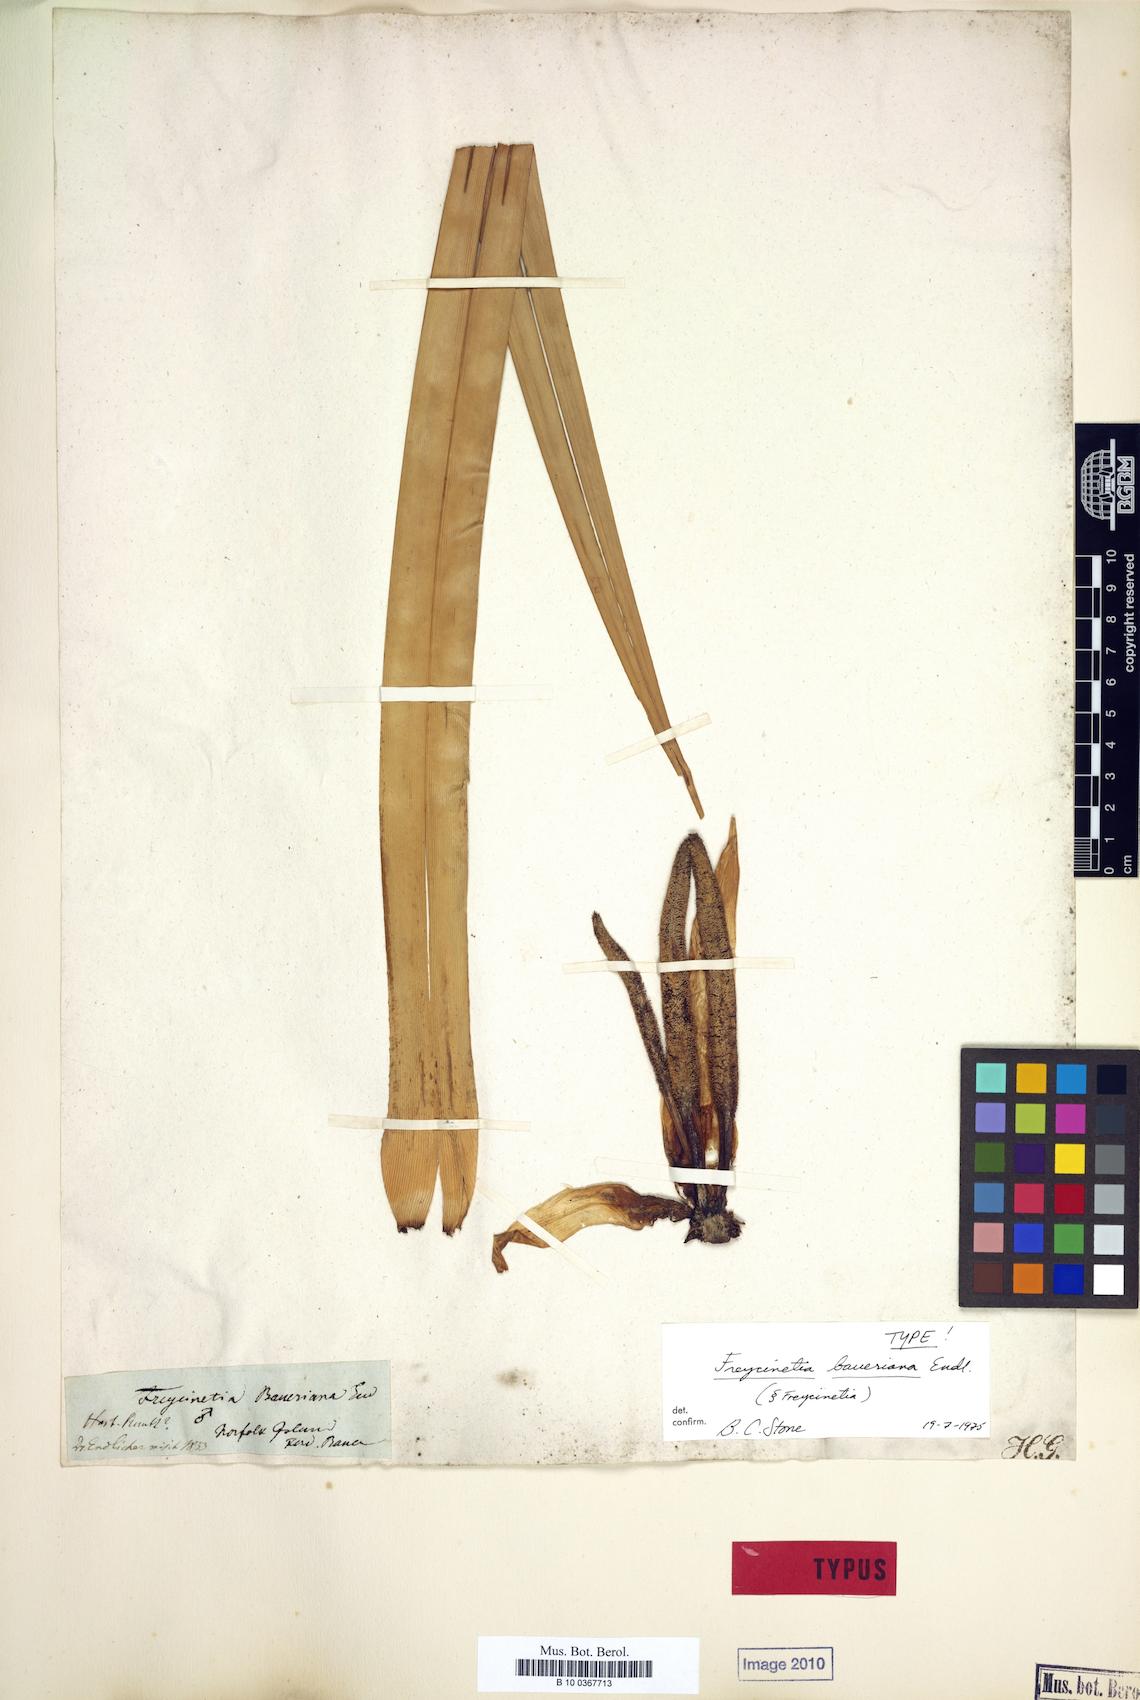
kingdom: Plantae
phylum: Tracheophyta
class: Liliopsida
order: Pandanales
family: Pandanaceae
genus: Freycinetia
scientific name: Freycinetia baueriana
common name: Mountain rush
